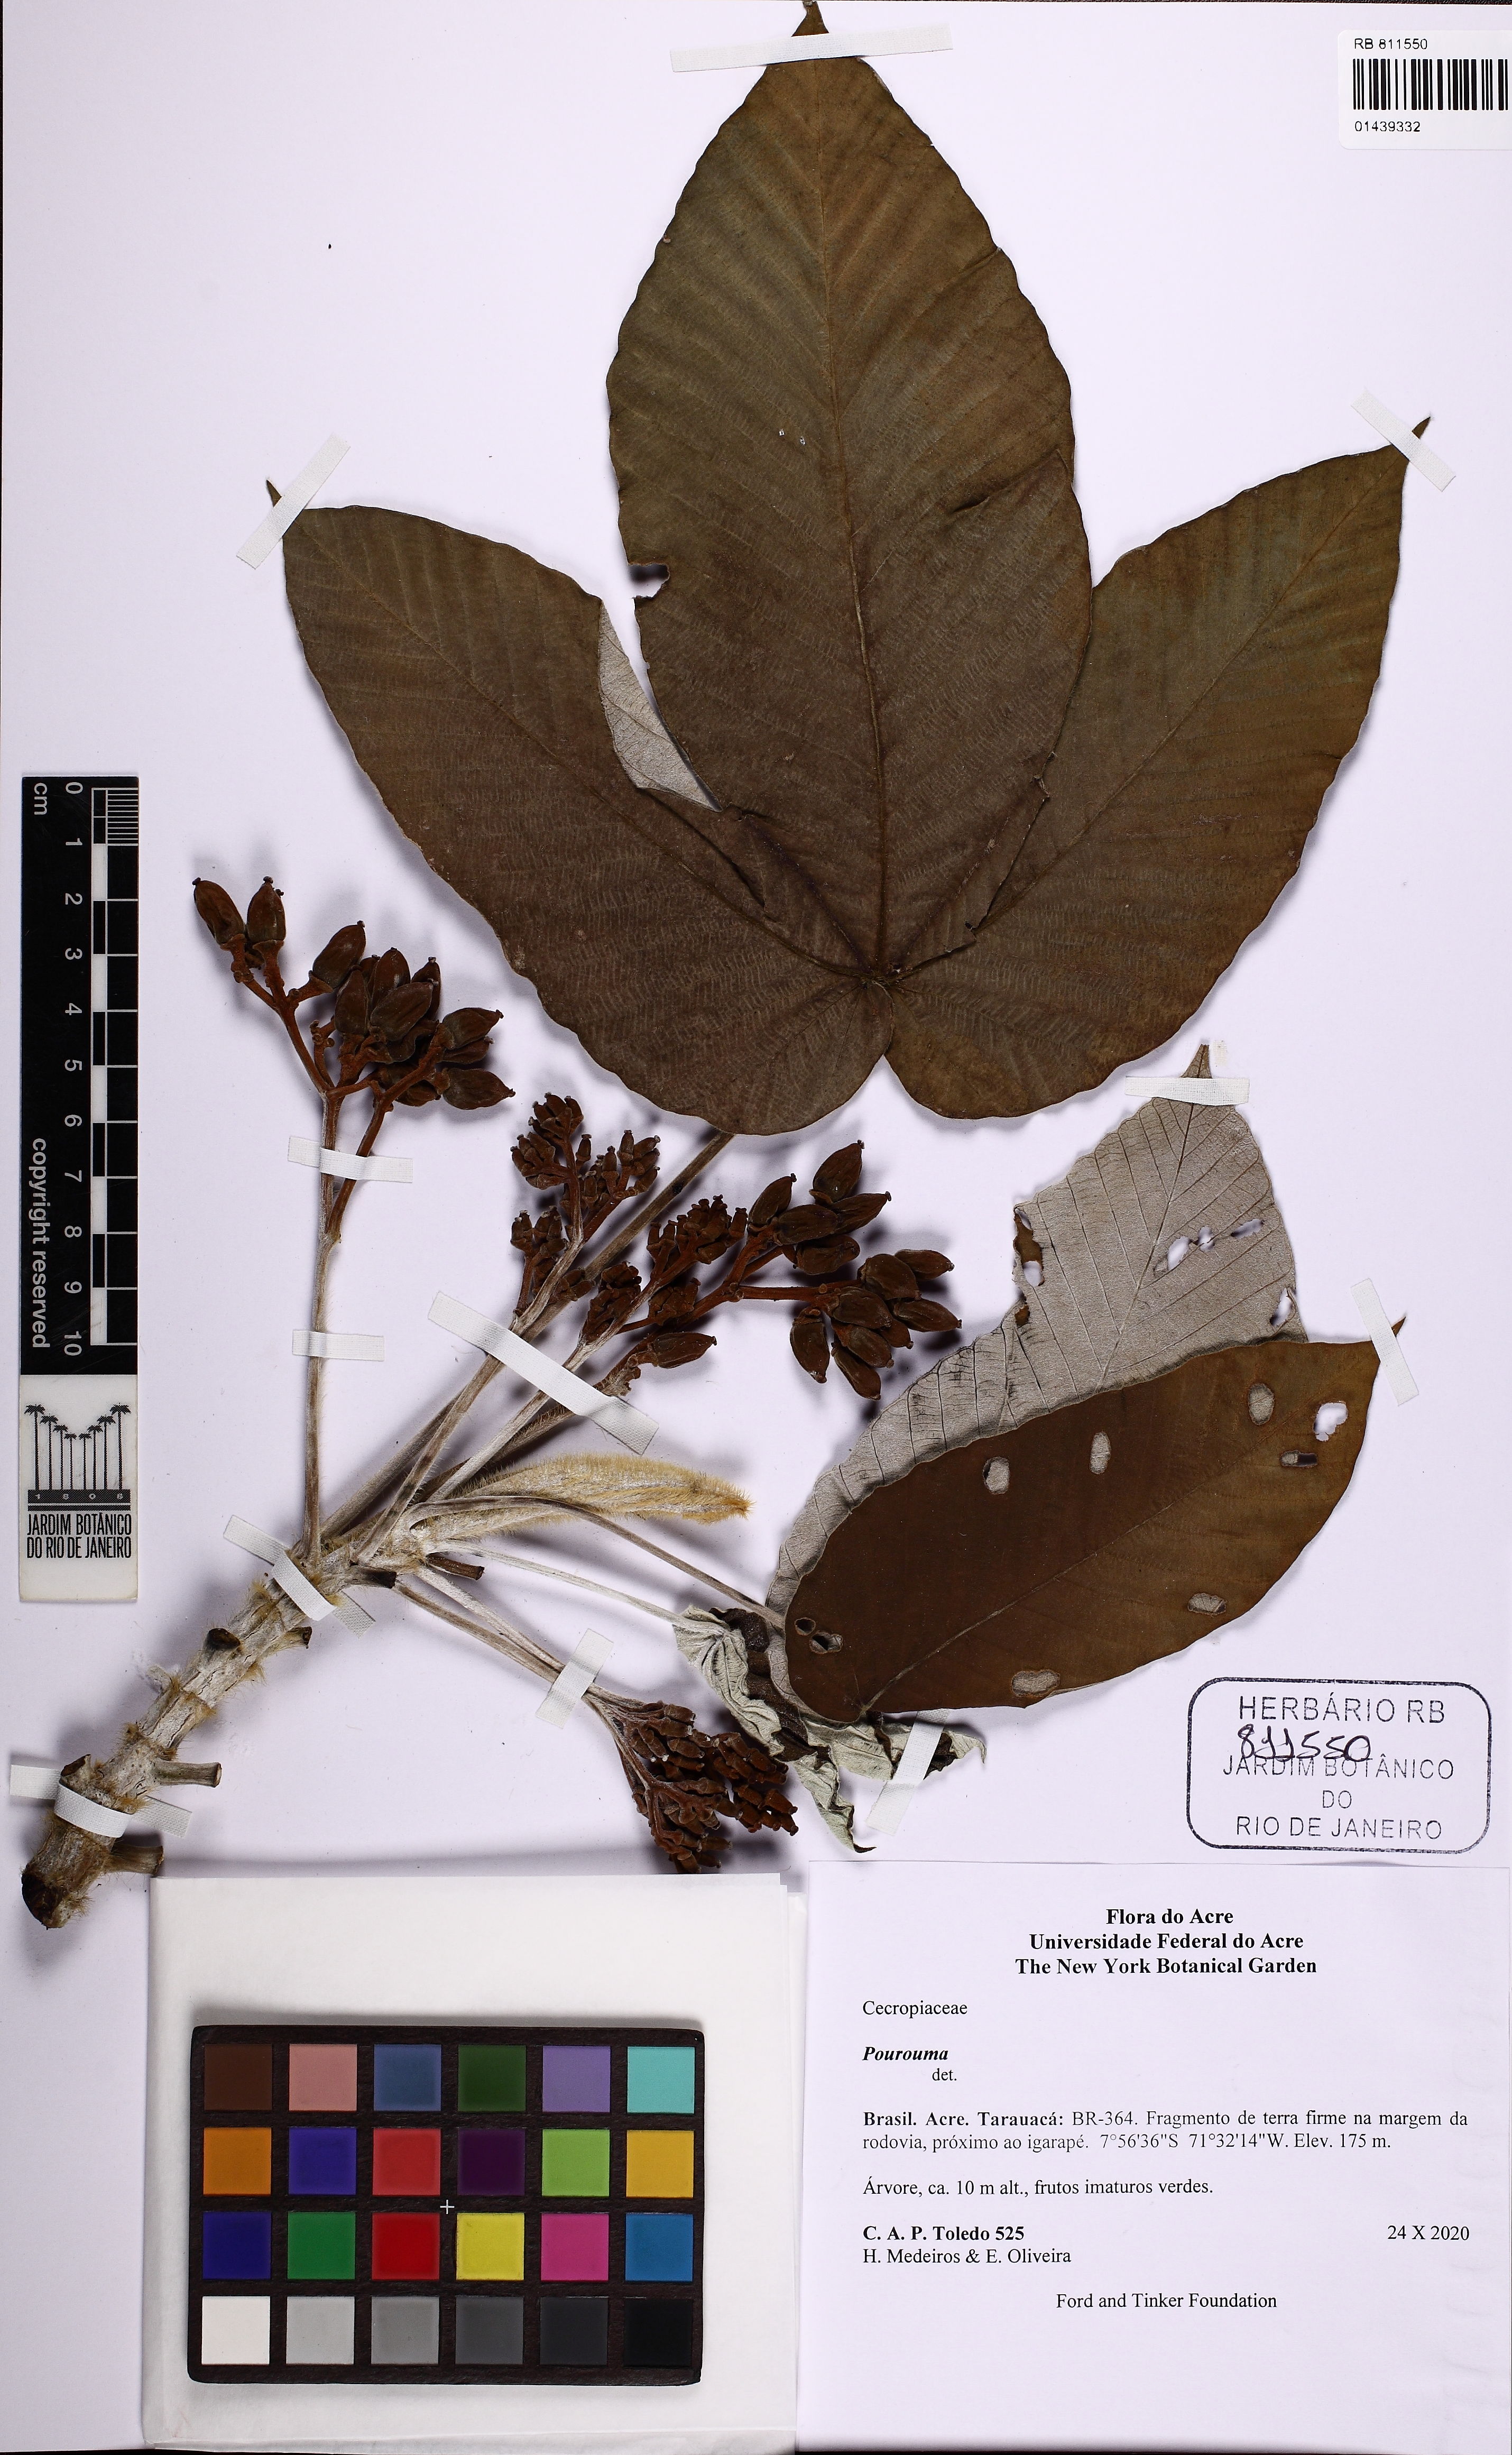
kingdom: Plantae
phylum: Tracheophyta
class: Magnoliopsida
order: Rosales
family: Urticaceae
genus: Pourouma
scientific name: Pourouma
